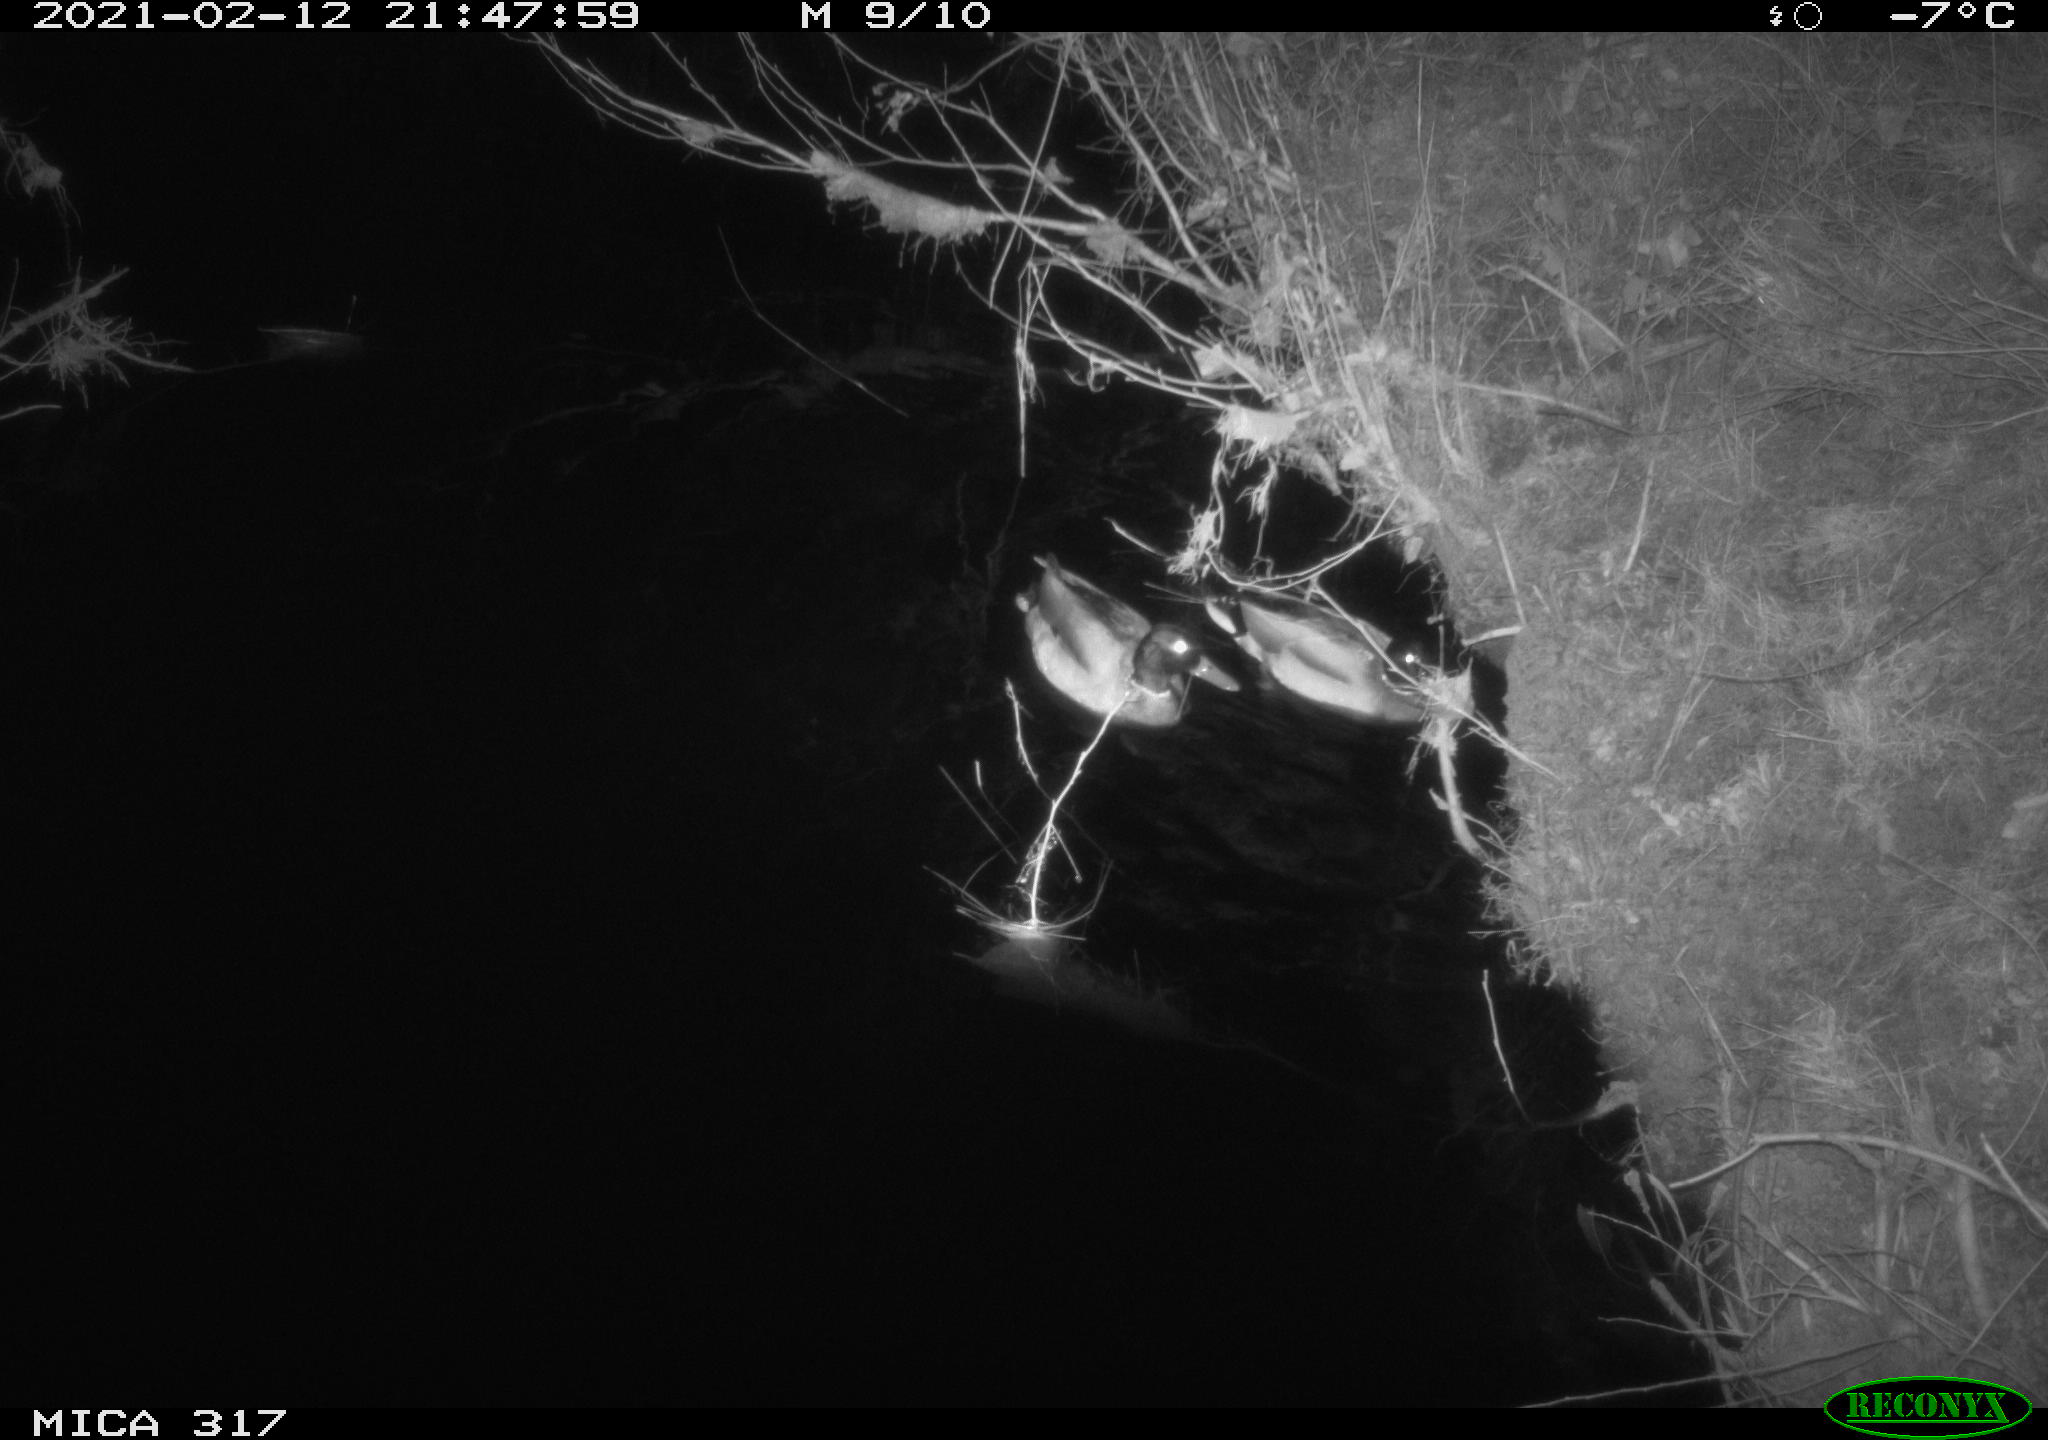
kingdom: Animalia
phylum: Chordata
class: Aves
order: Anseriformes
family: Anatidae
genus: Anas
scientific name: Anas platyrhynchos
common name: Mallard
